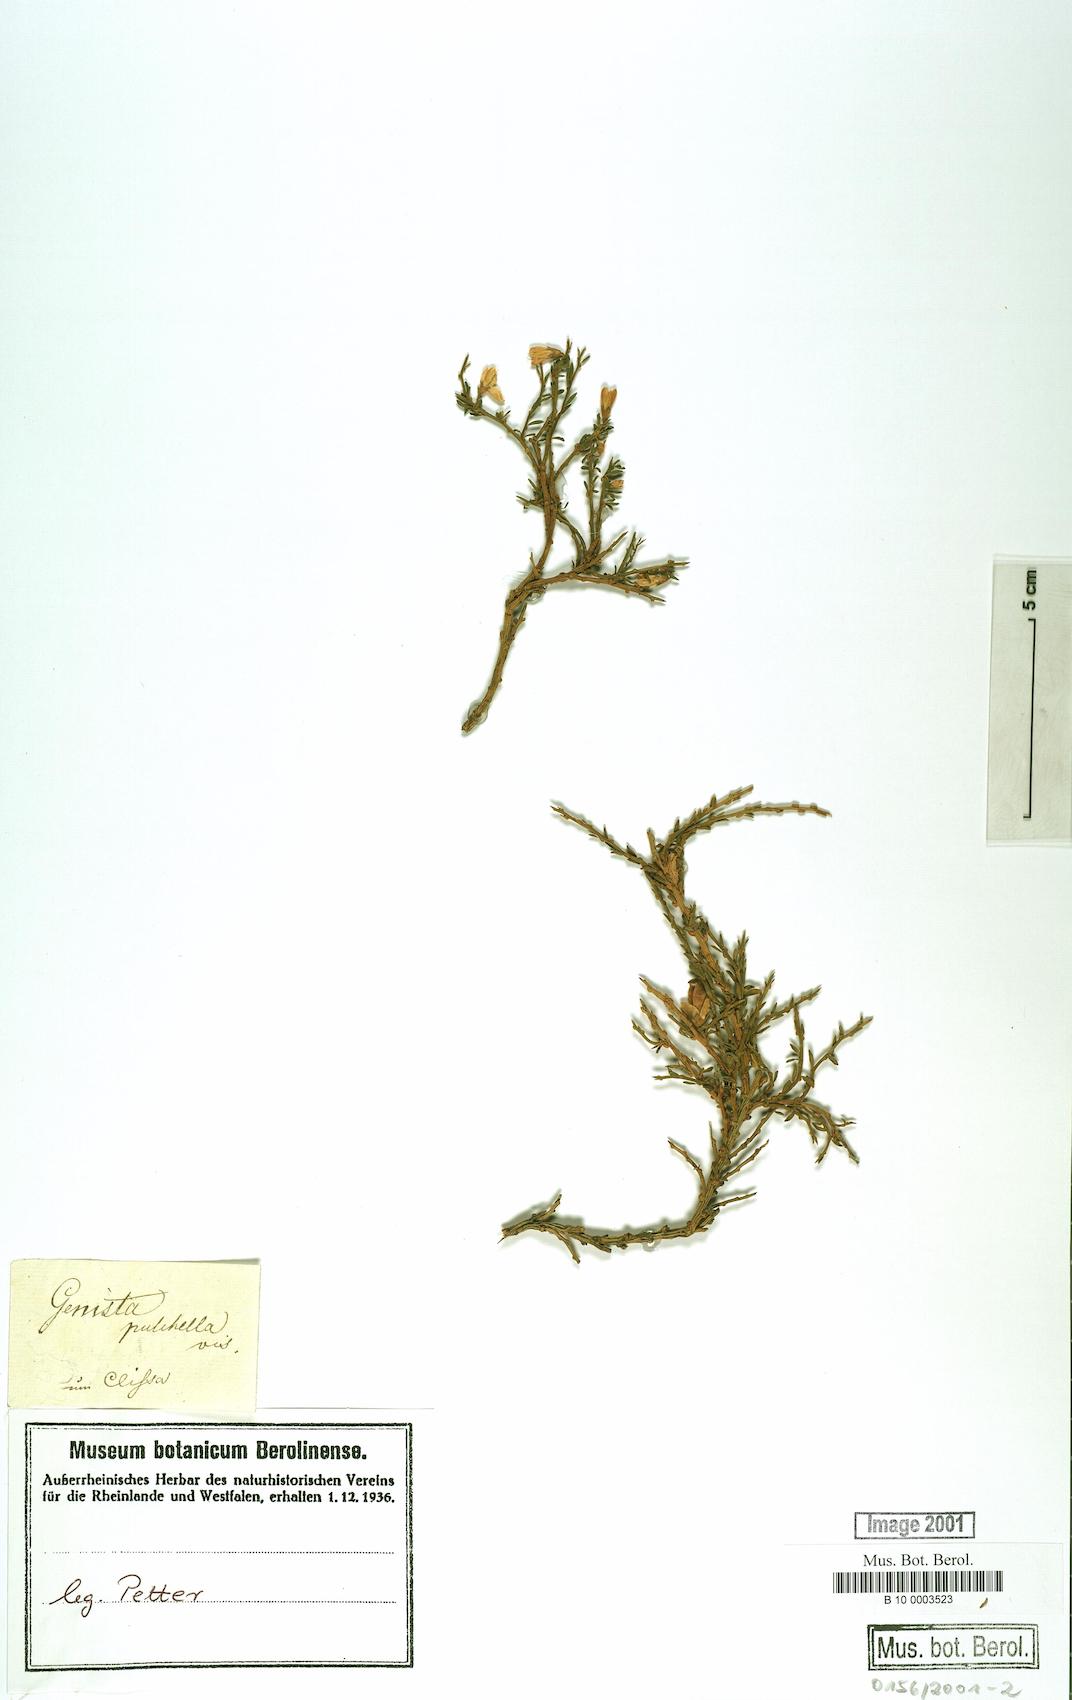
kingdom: Plantae
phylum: Tracheophyta
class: Magnoliopsida
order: Fabales
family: Fabaceae
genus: Genista
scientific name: Genista pulchella
